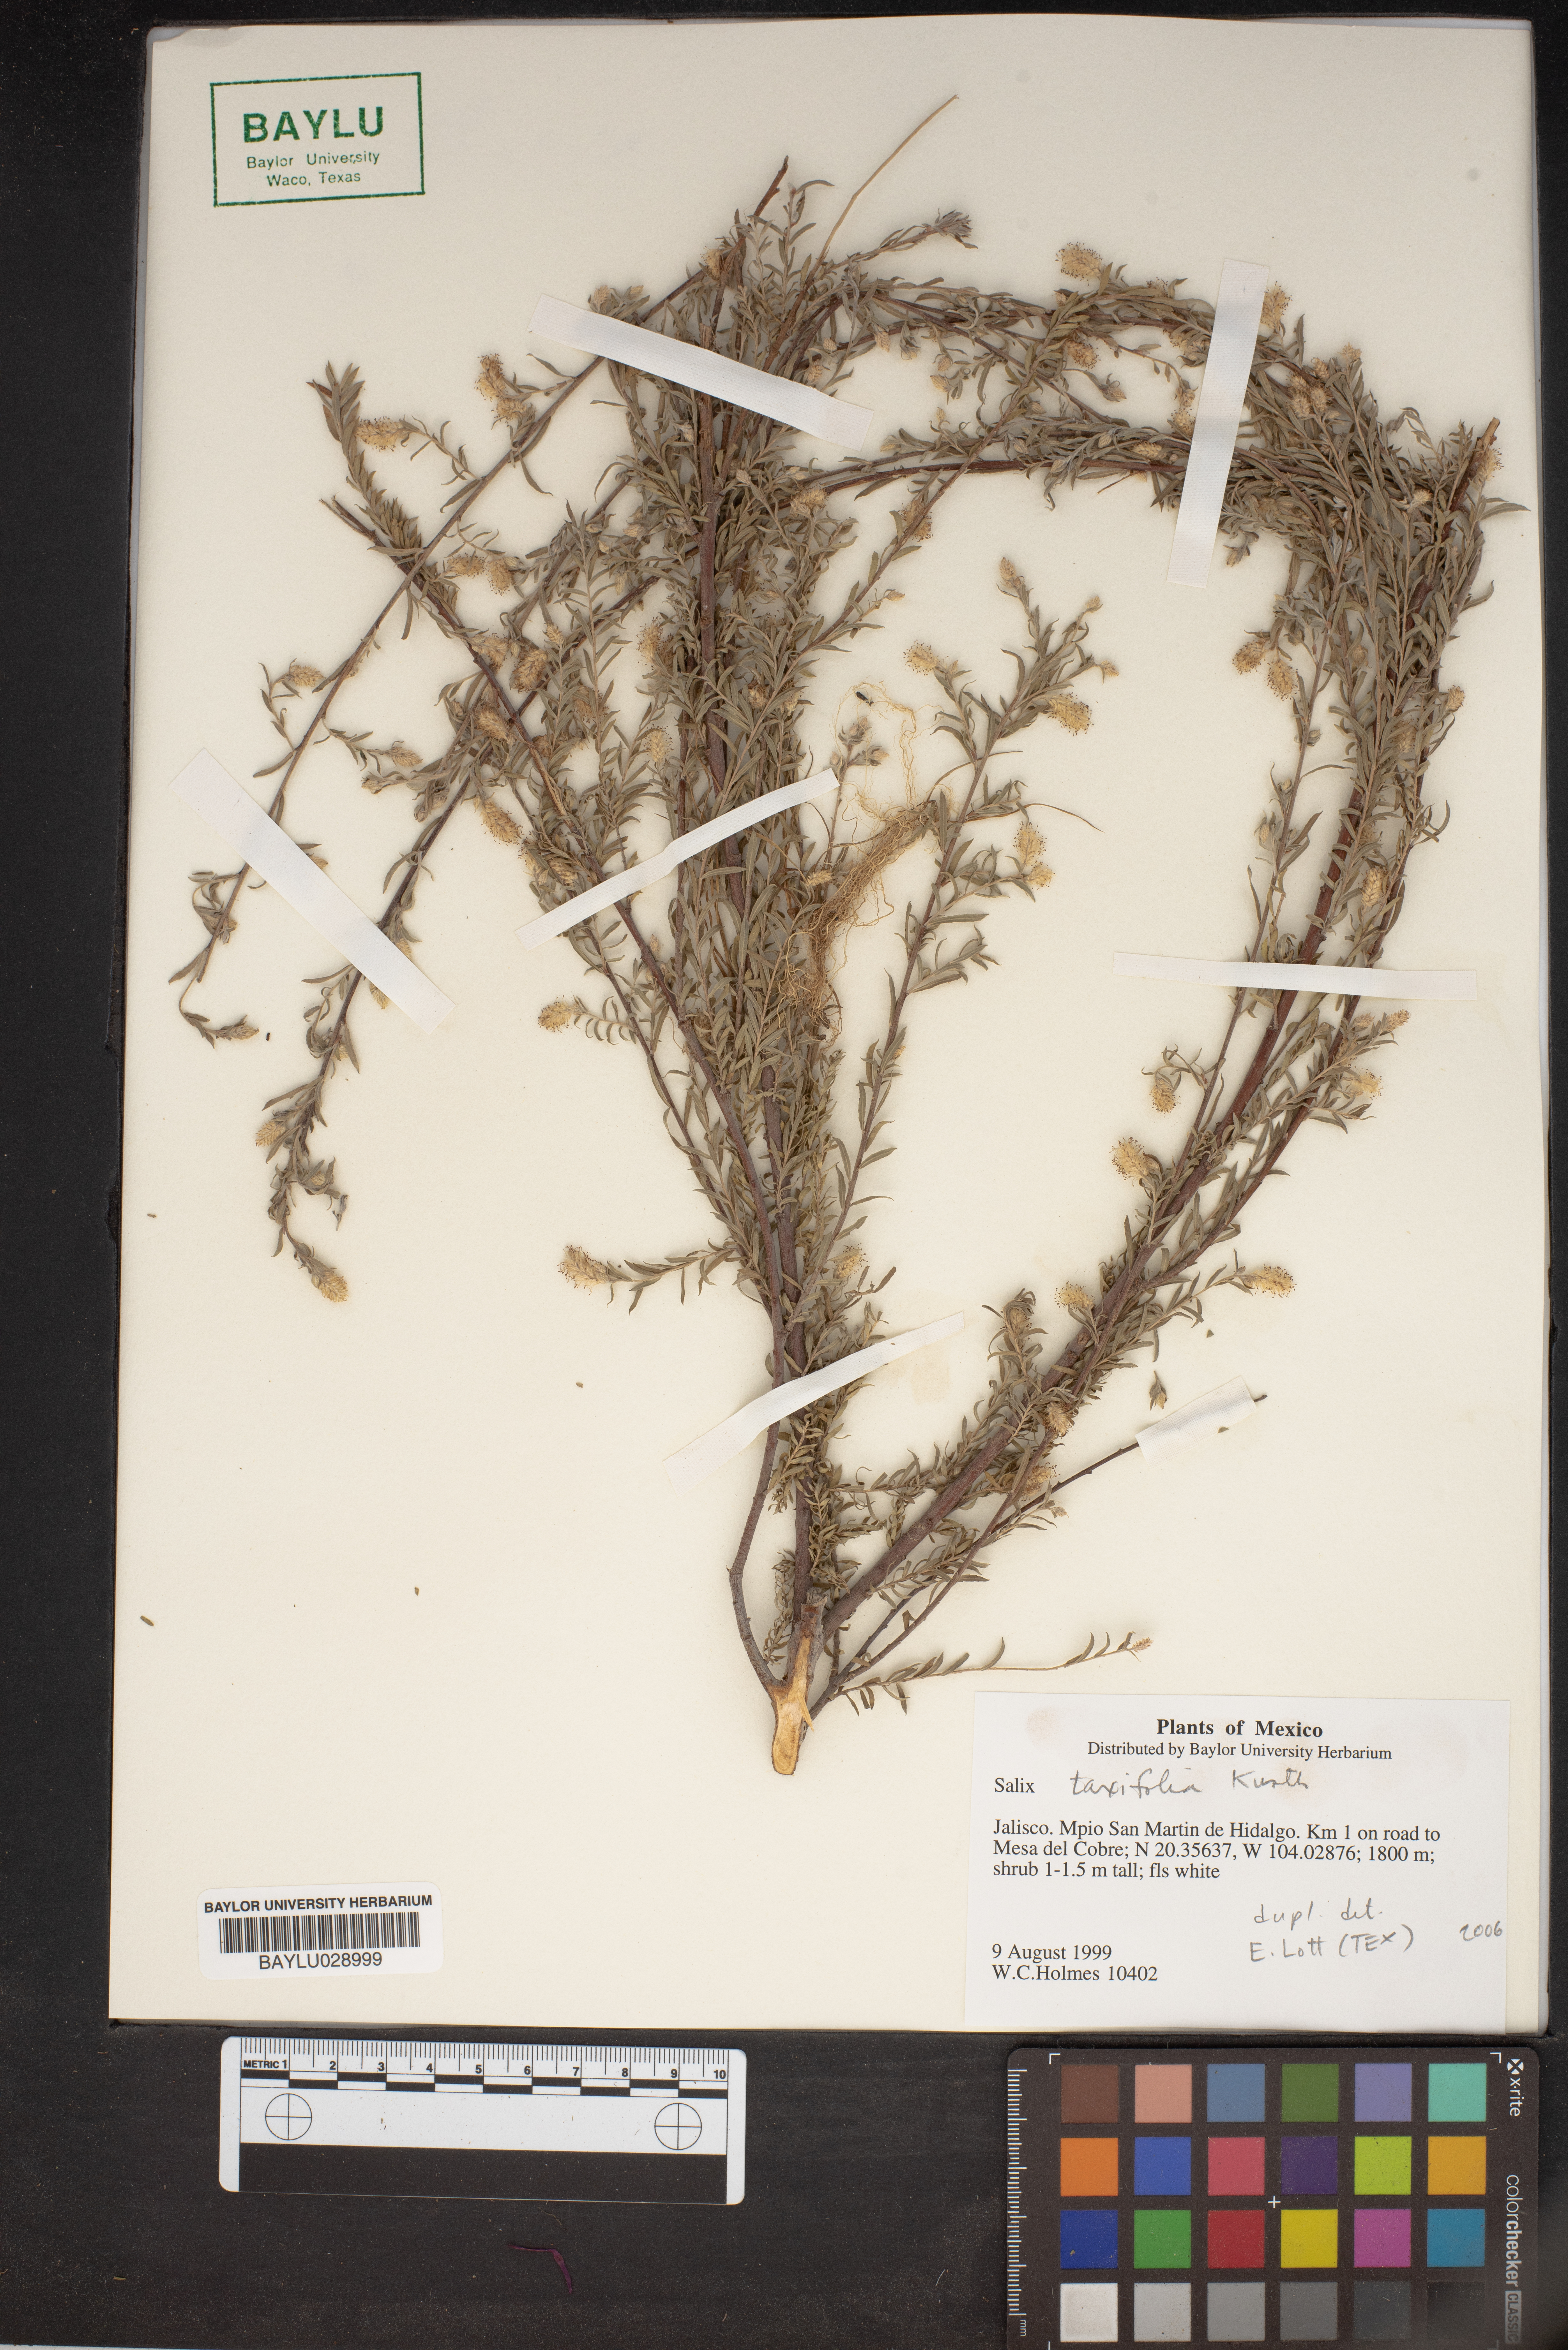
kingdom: Plantae
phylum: Tracheophyta
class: Magnoliopsida
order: Malpighiales
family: Salicaceae
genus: Salix
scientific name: Salix taxifolia
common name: Yew-leaf willow
